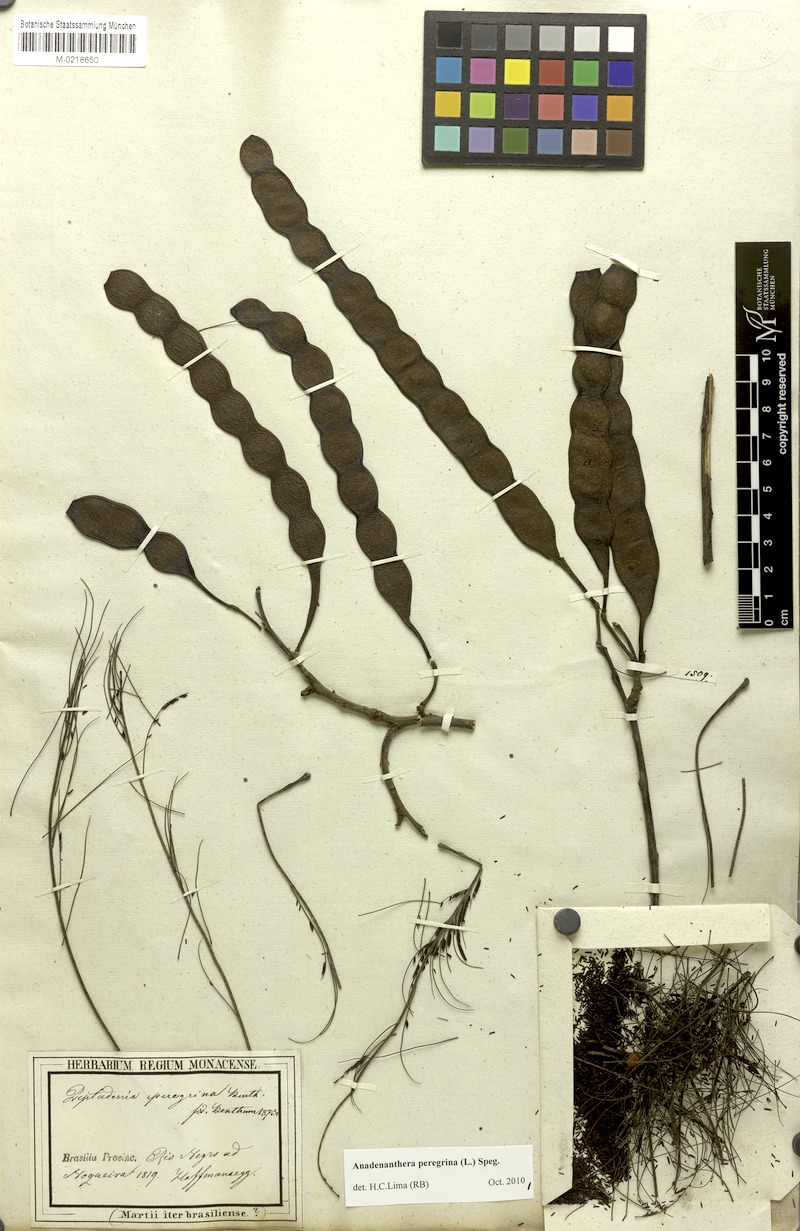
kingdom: Plantae
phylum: Tracheophyta
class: Magnoliopsida
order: Fabales
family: Fabaceae
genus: Anadenanthera
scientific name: Anadenanthera peregrina
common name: Cohoba
